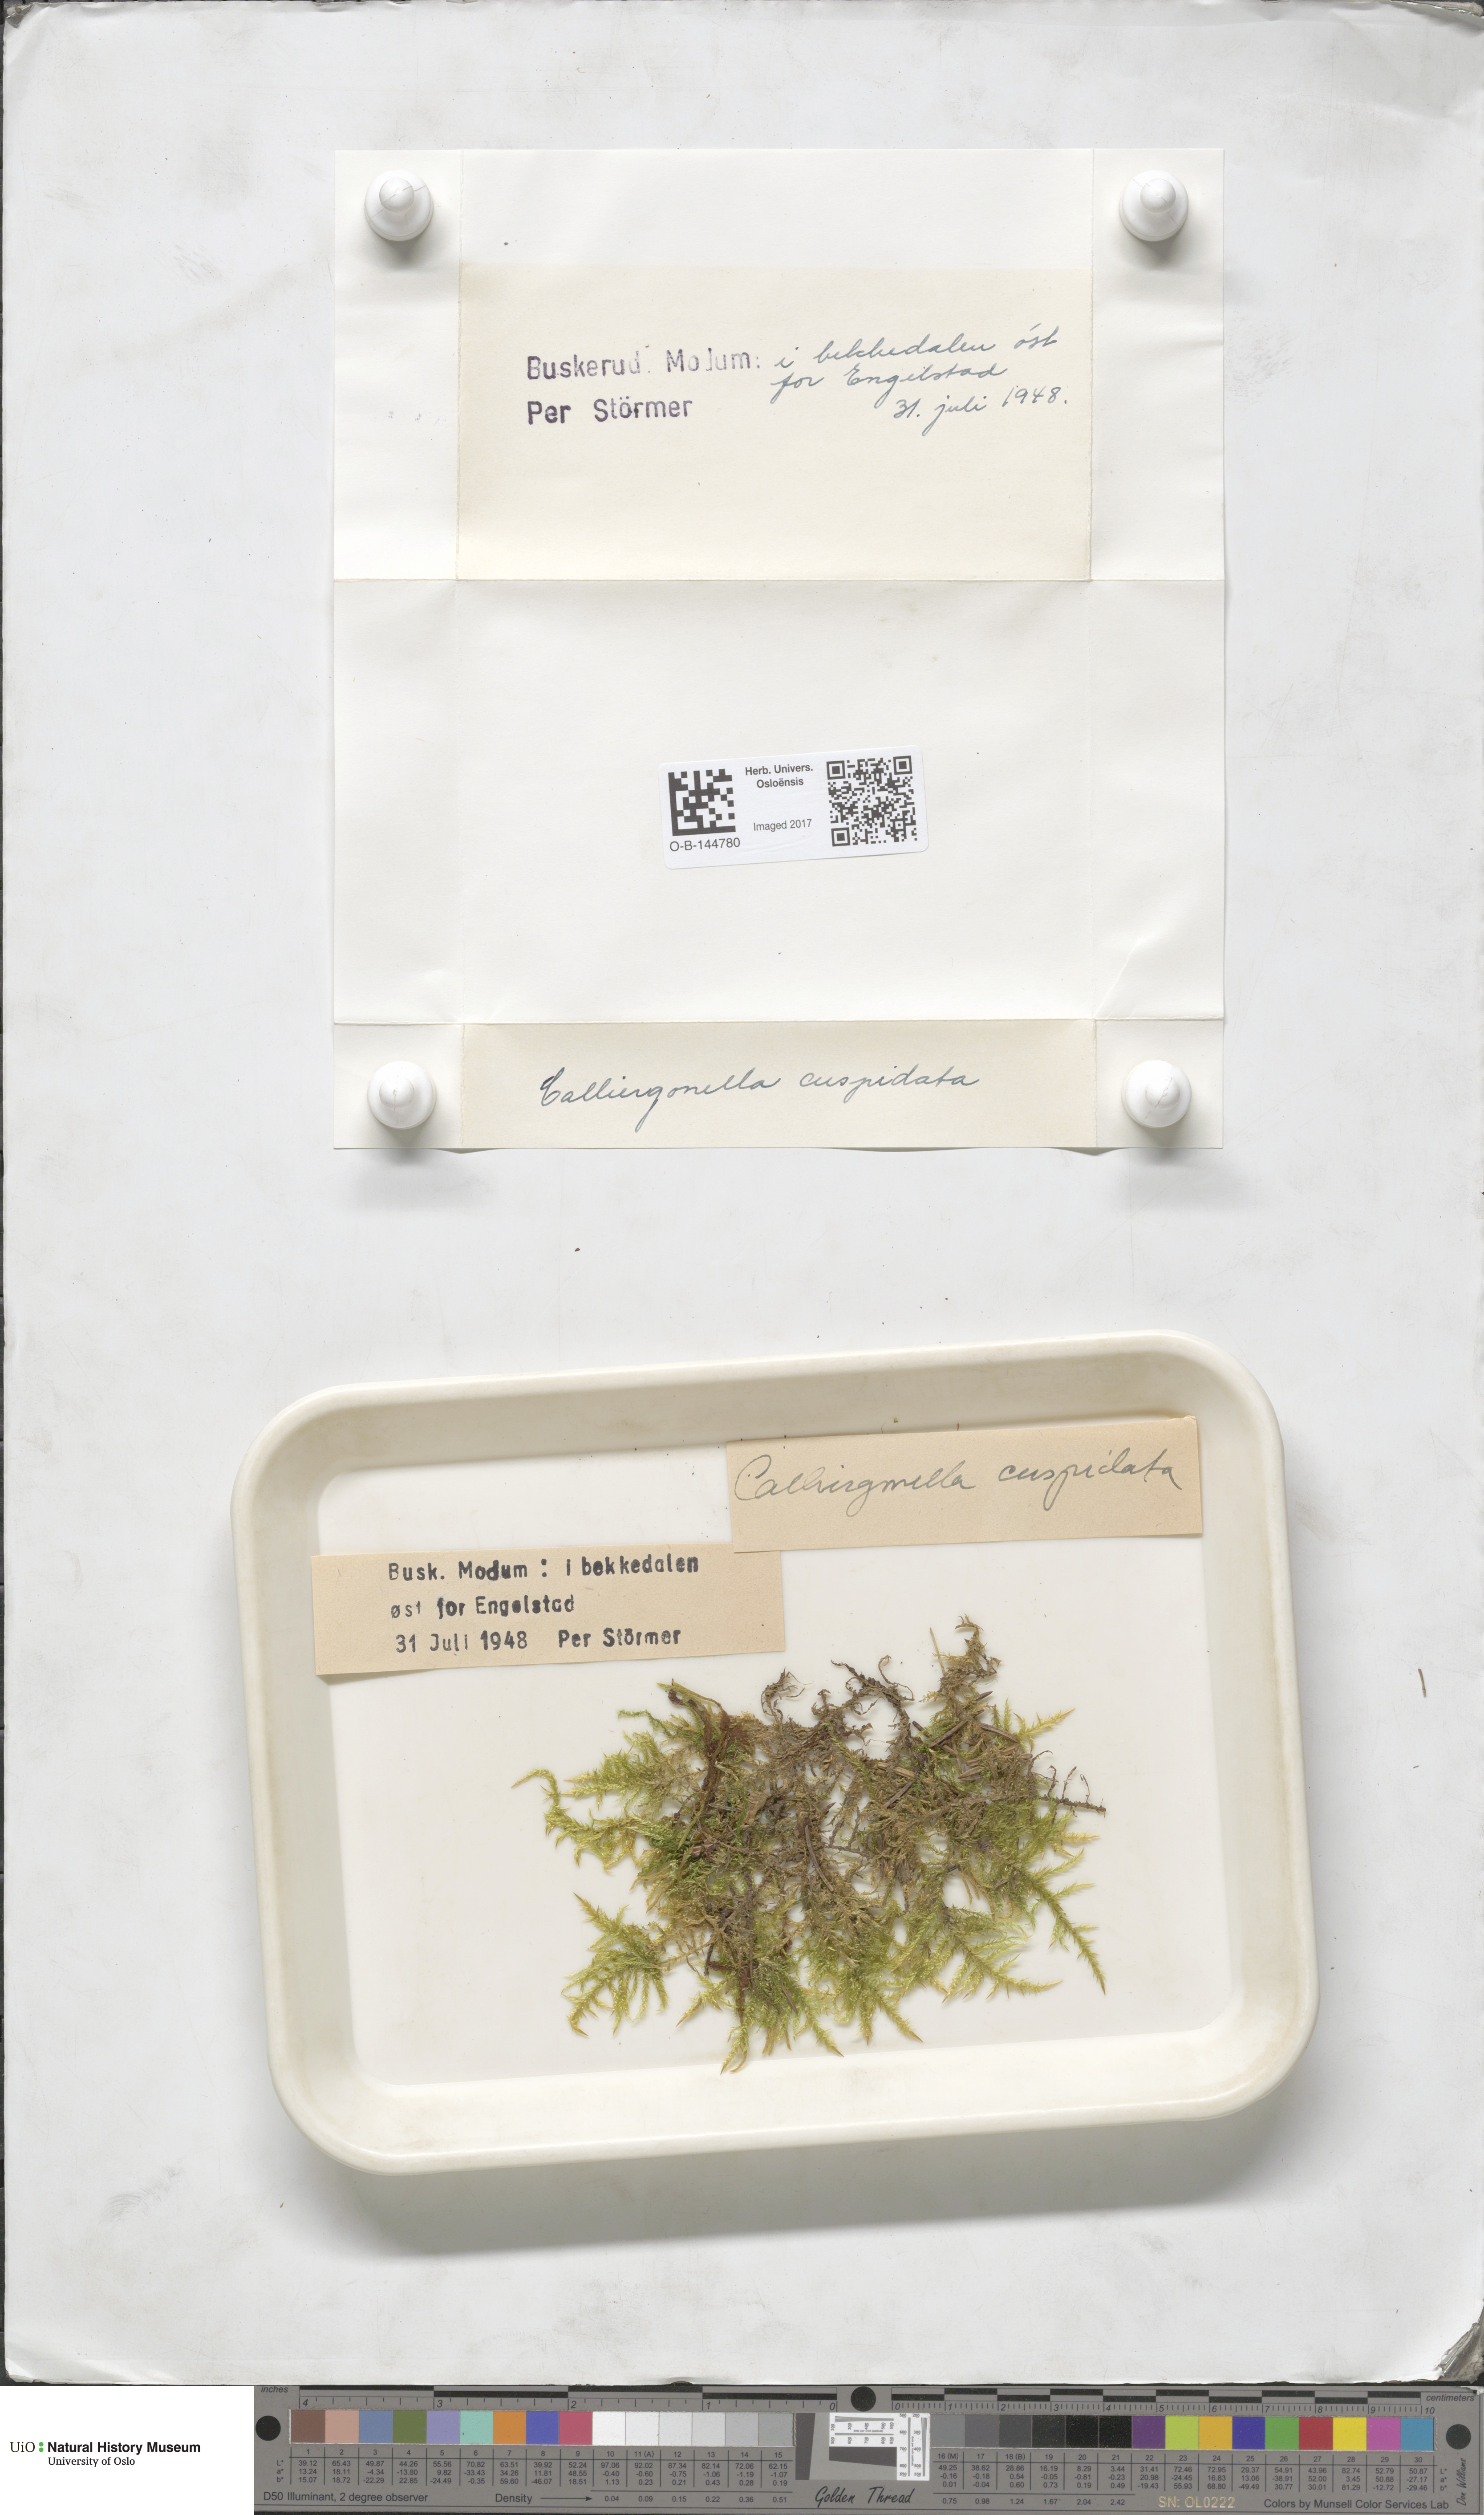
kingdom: Plantae
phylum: Bryophyta
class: Bryopsida
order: Hypnales
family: Pylaisiaceae
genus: Calliergonella
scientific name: Calliergonella cuspidata
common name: Common large wetland moss
